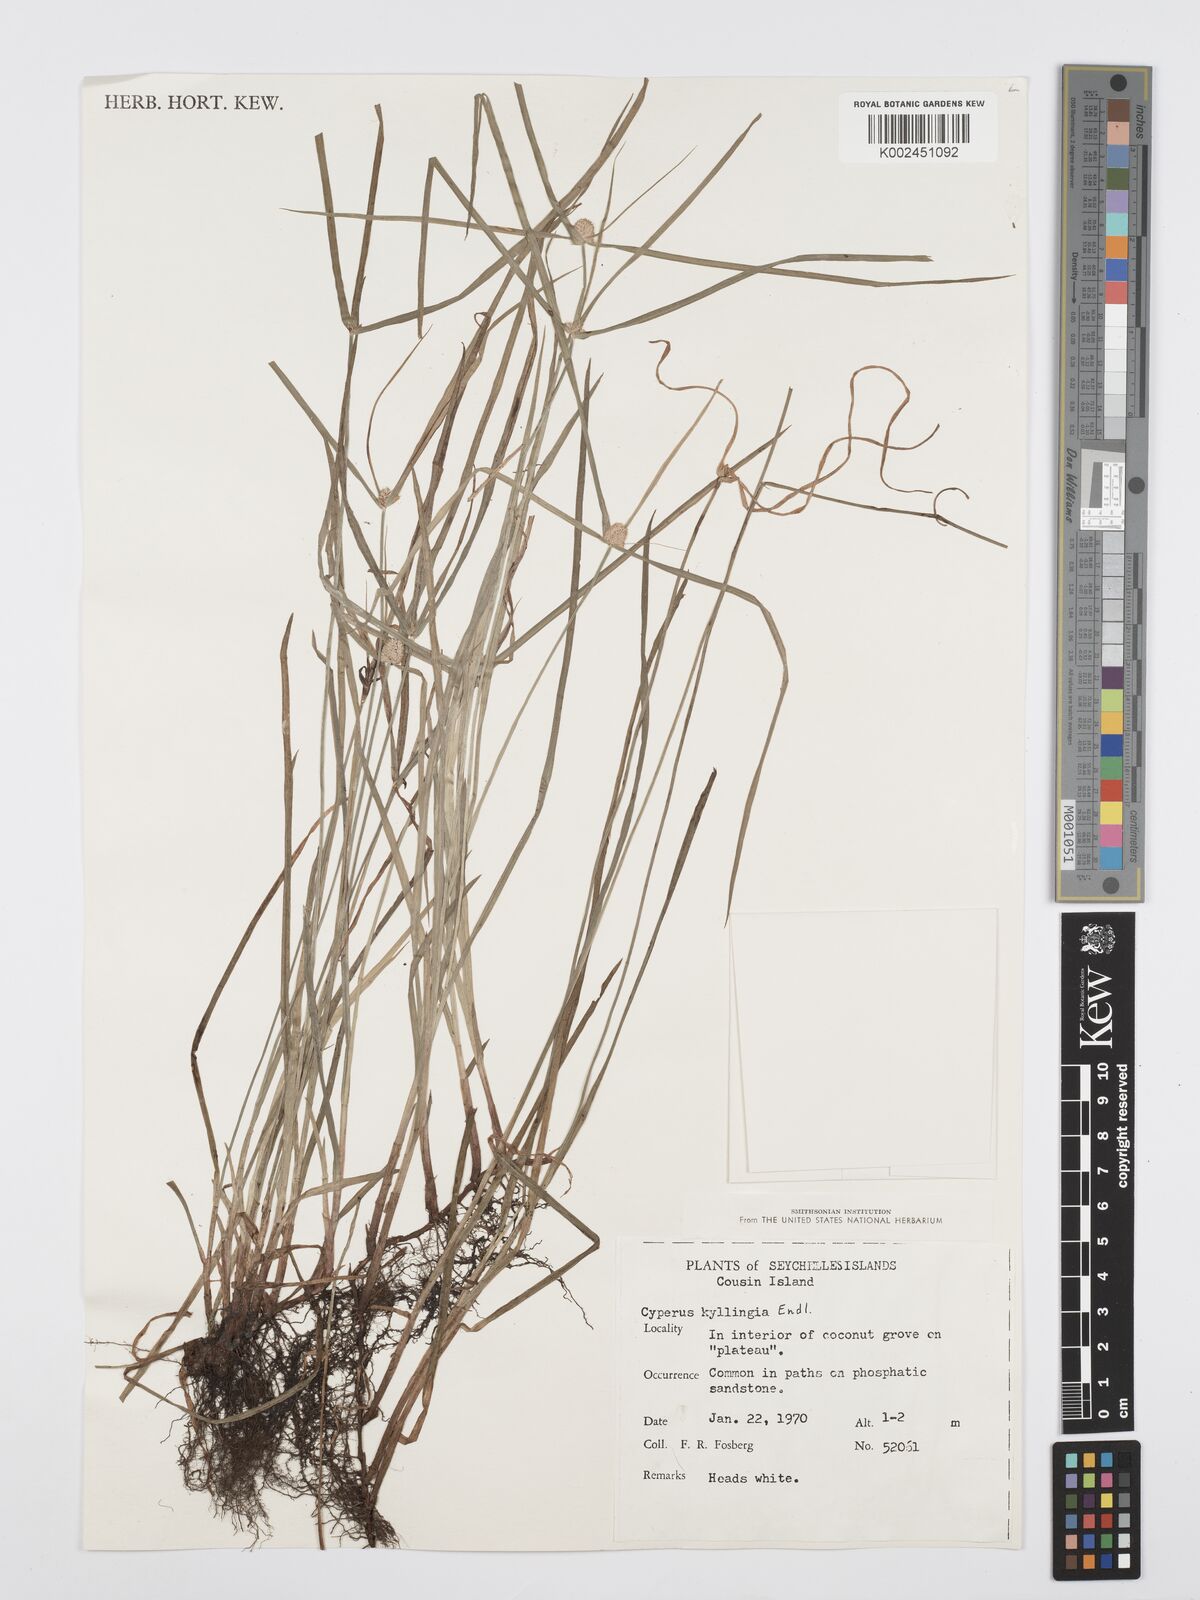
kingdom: Plantae
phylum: Tracheophyta
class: Liliopsida
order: Poales
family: Cyperaceae
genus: Cyperus
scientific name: Cyperus nemoralis
